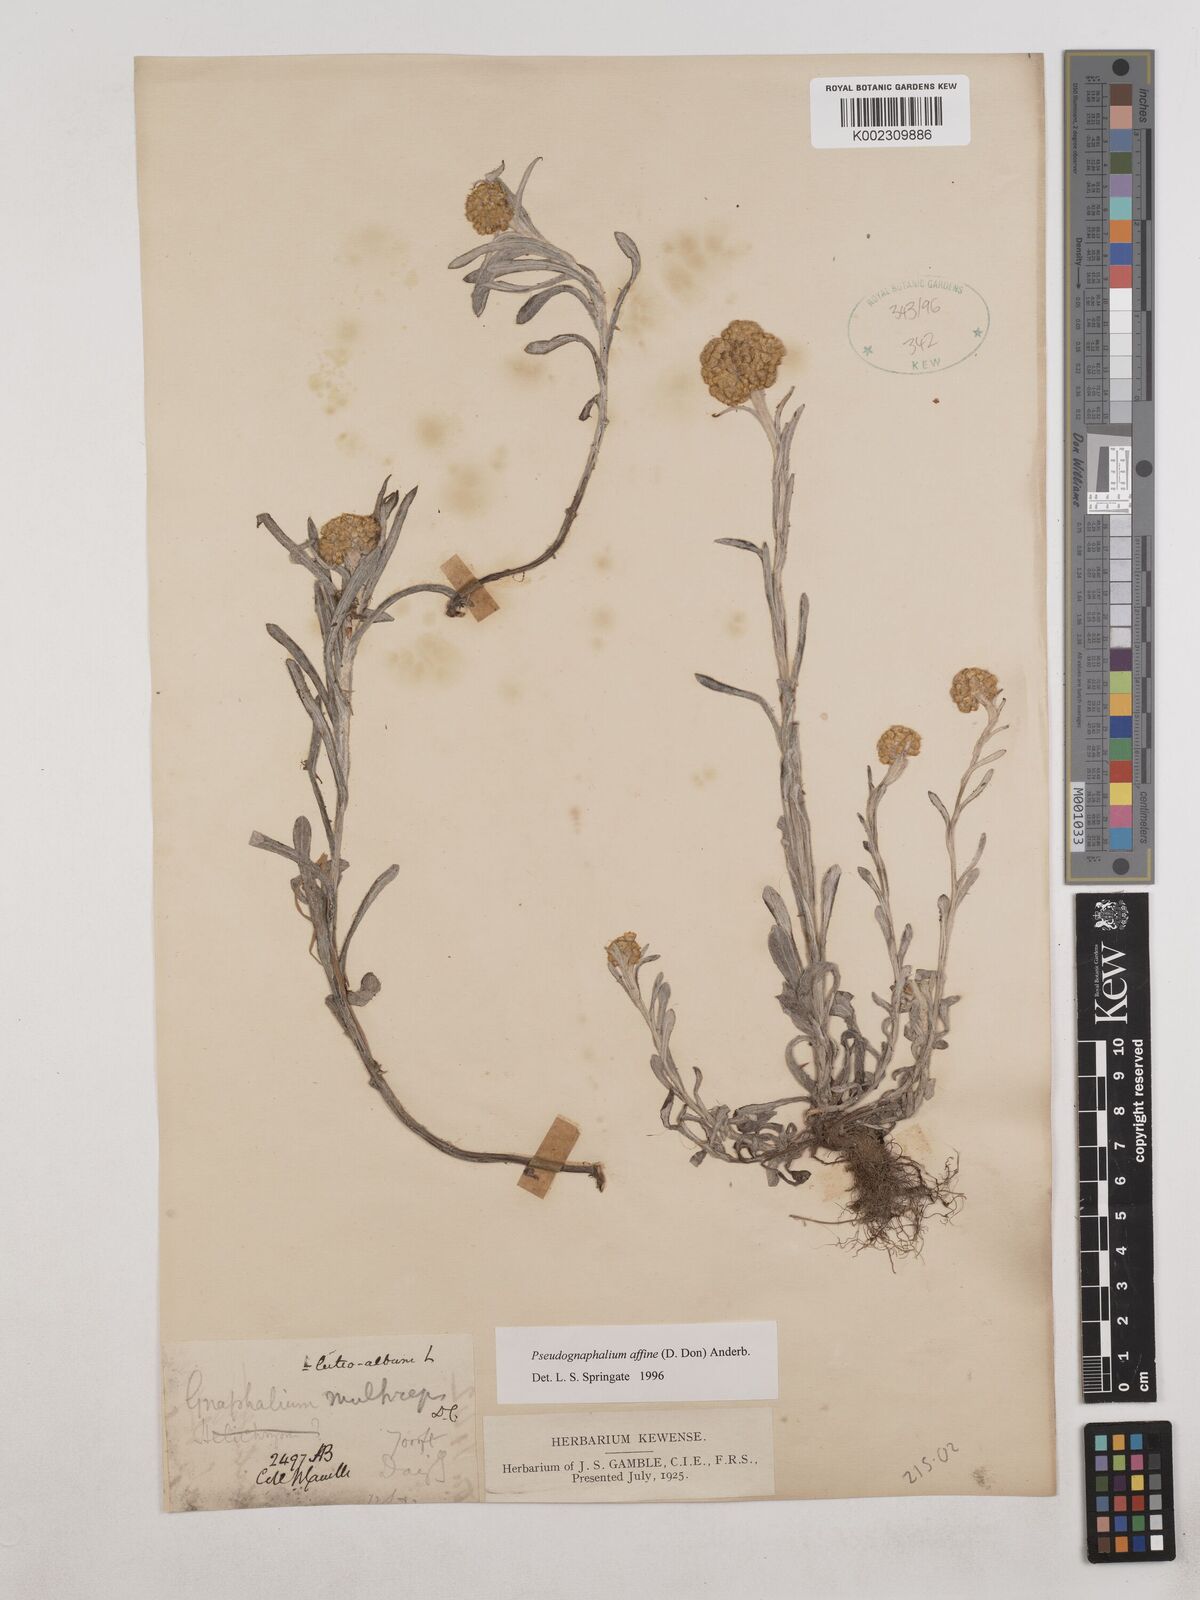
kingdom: Plantae
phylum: Tracheophyta
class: Magnoliopsida
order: Asterales
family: Asteraceae
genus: Pseudognaphalium
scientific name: Pseudognaphalium affine
